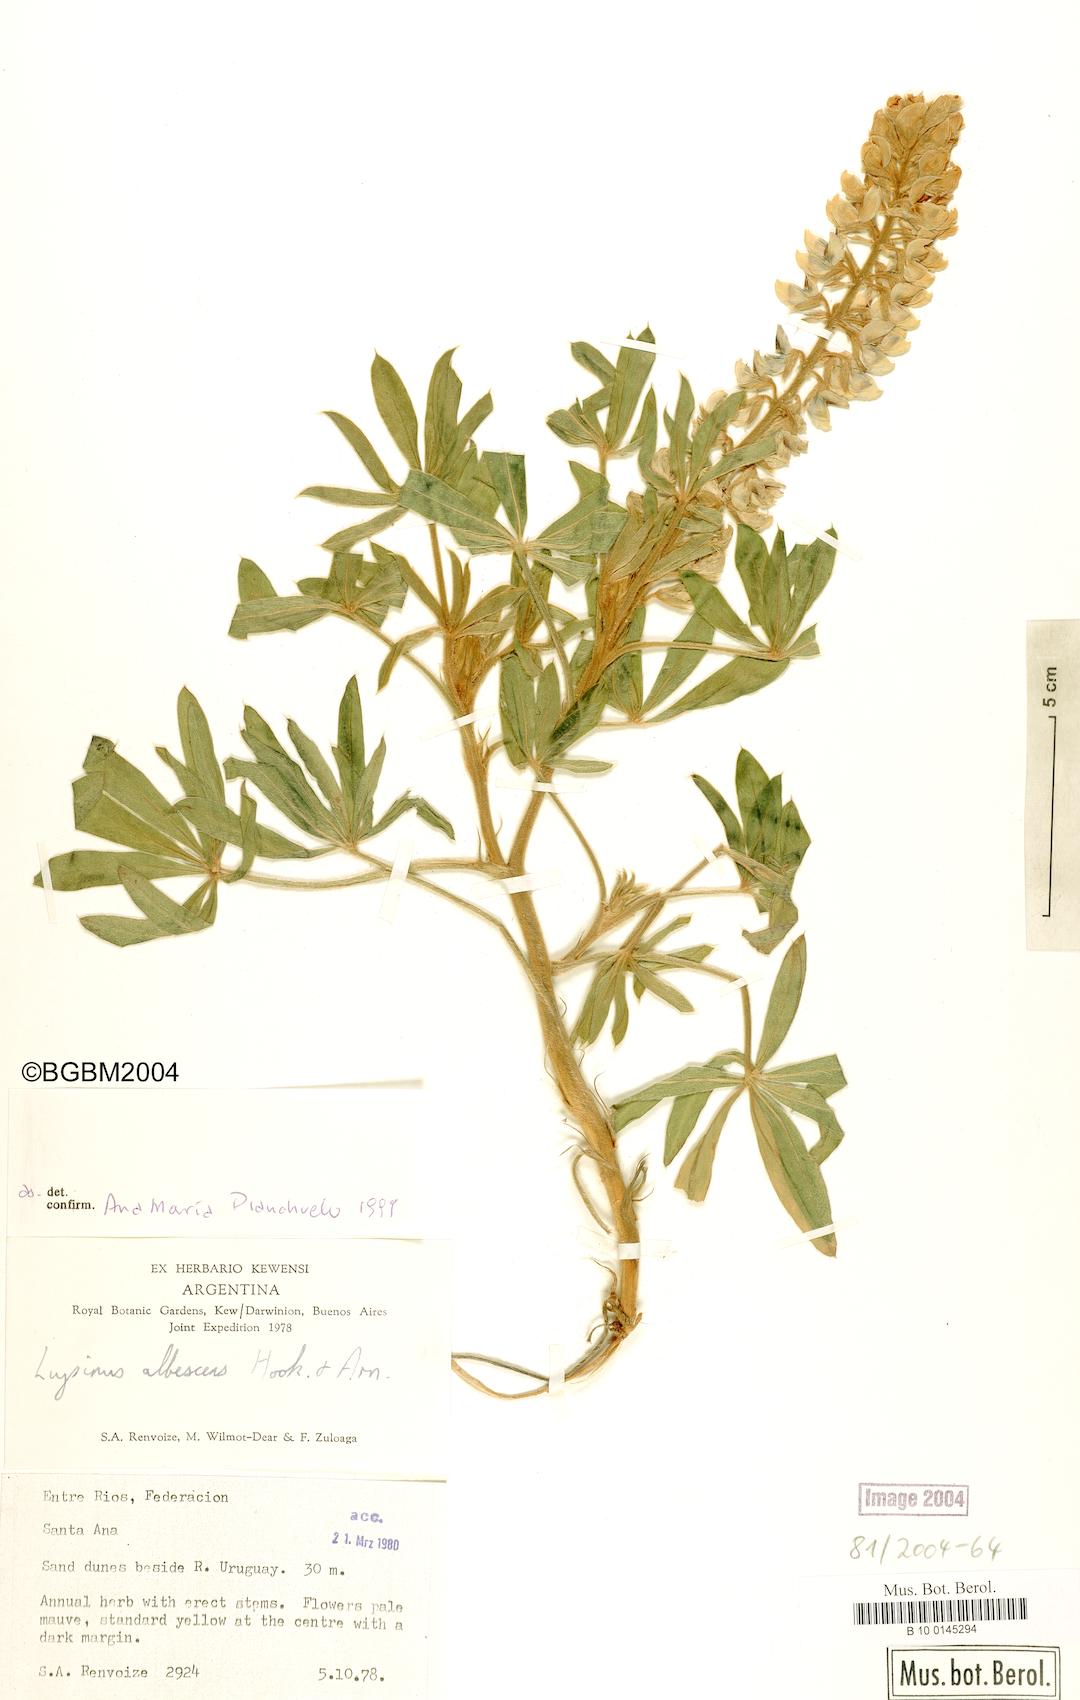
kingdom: Plantae
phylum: Tracheophyta
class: Magnoliopsida
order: Fabales
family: Fabaceae
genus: Lupinus
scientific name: Lupinus albescens
